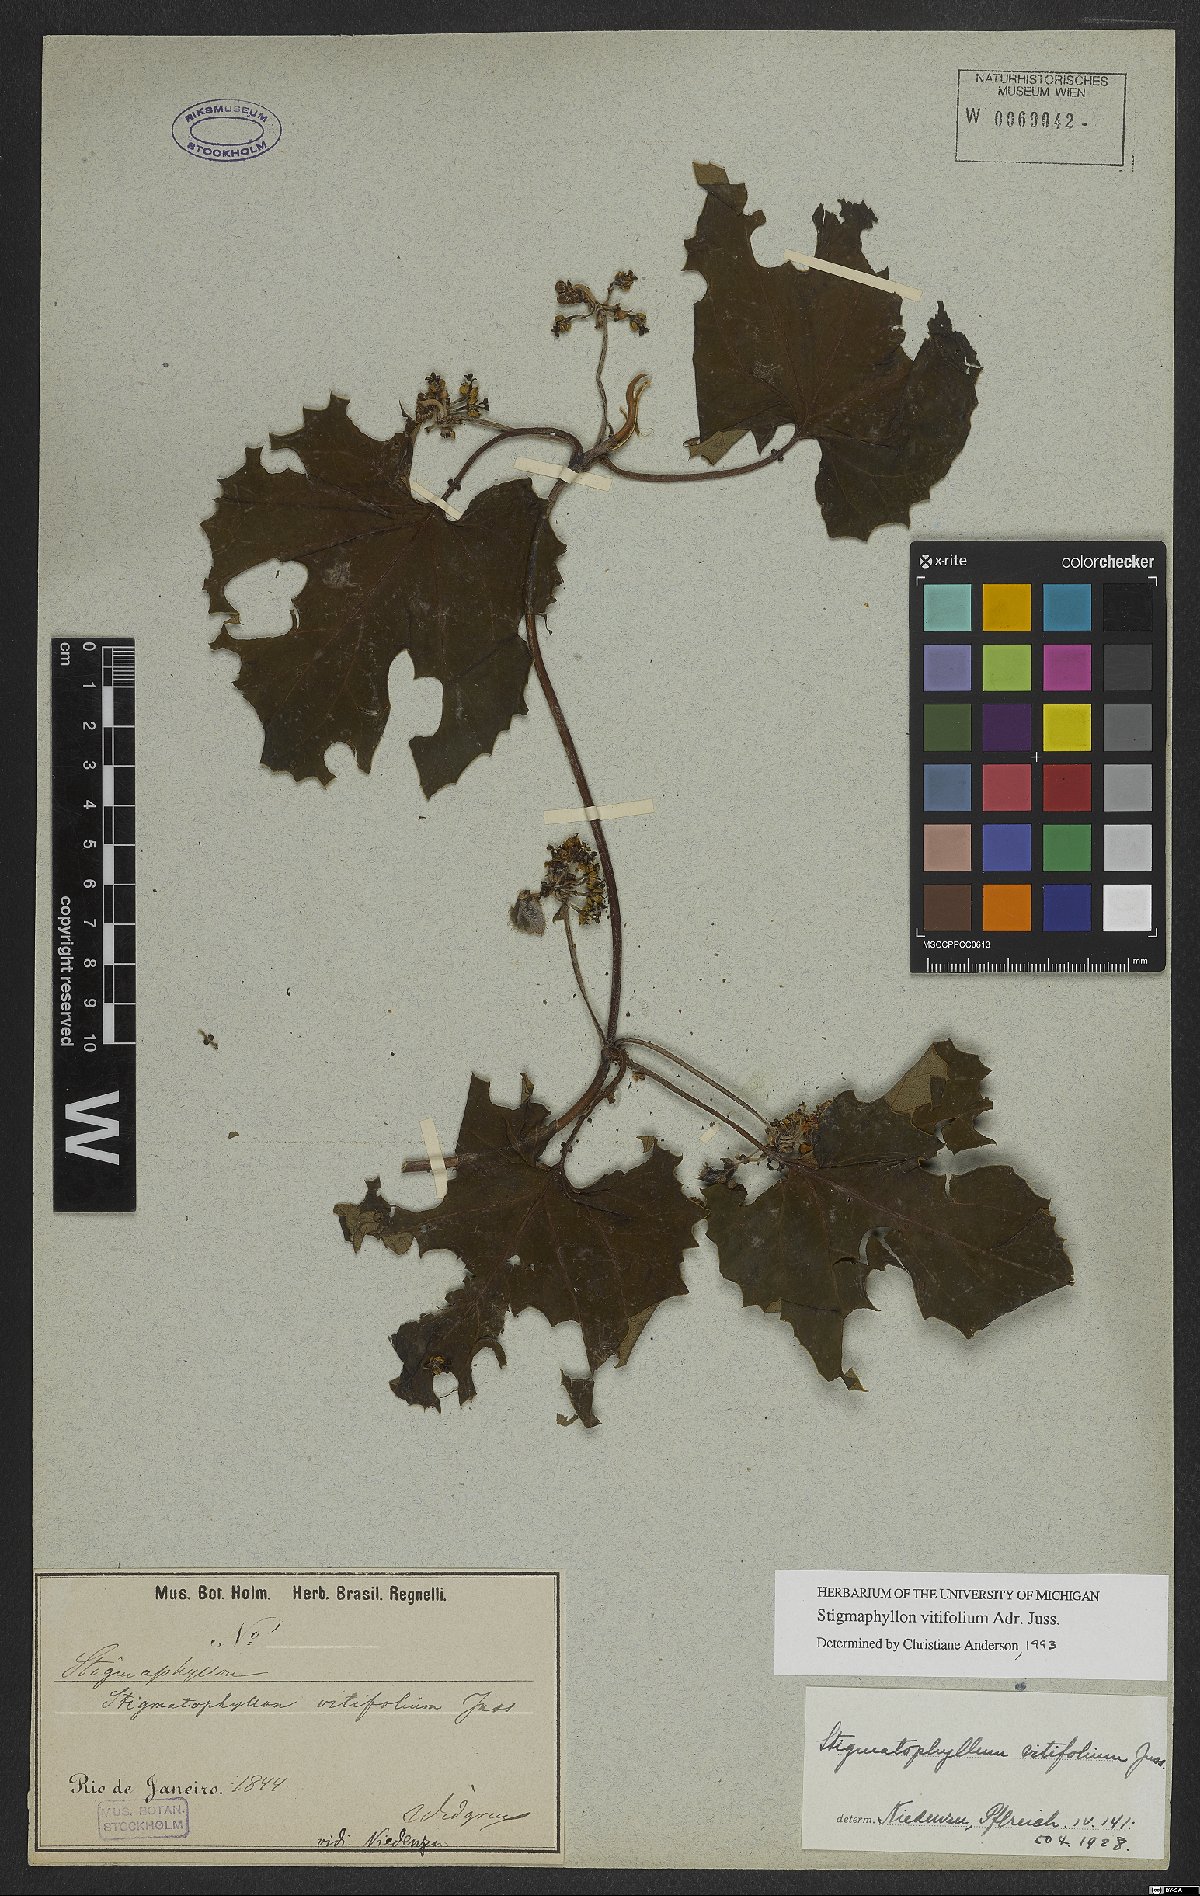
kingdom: Plantae
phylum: Tracheophyta
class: Magnoliopsida
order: Malpighiales
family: Malpighiaceae
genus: Stigmaphyllon
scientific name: Stigmaphyllon vitifolium
